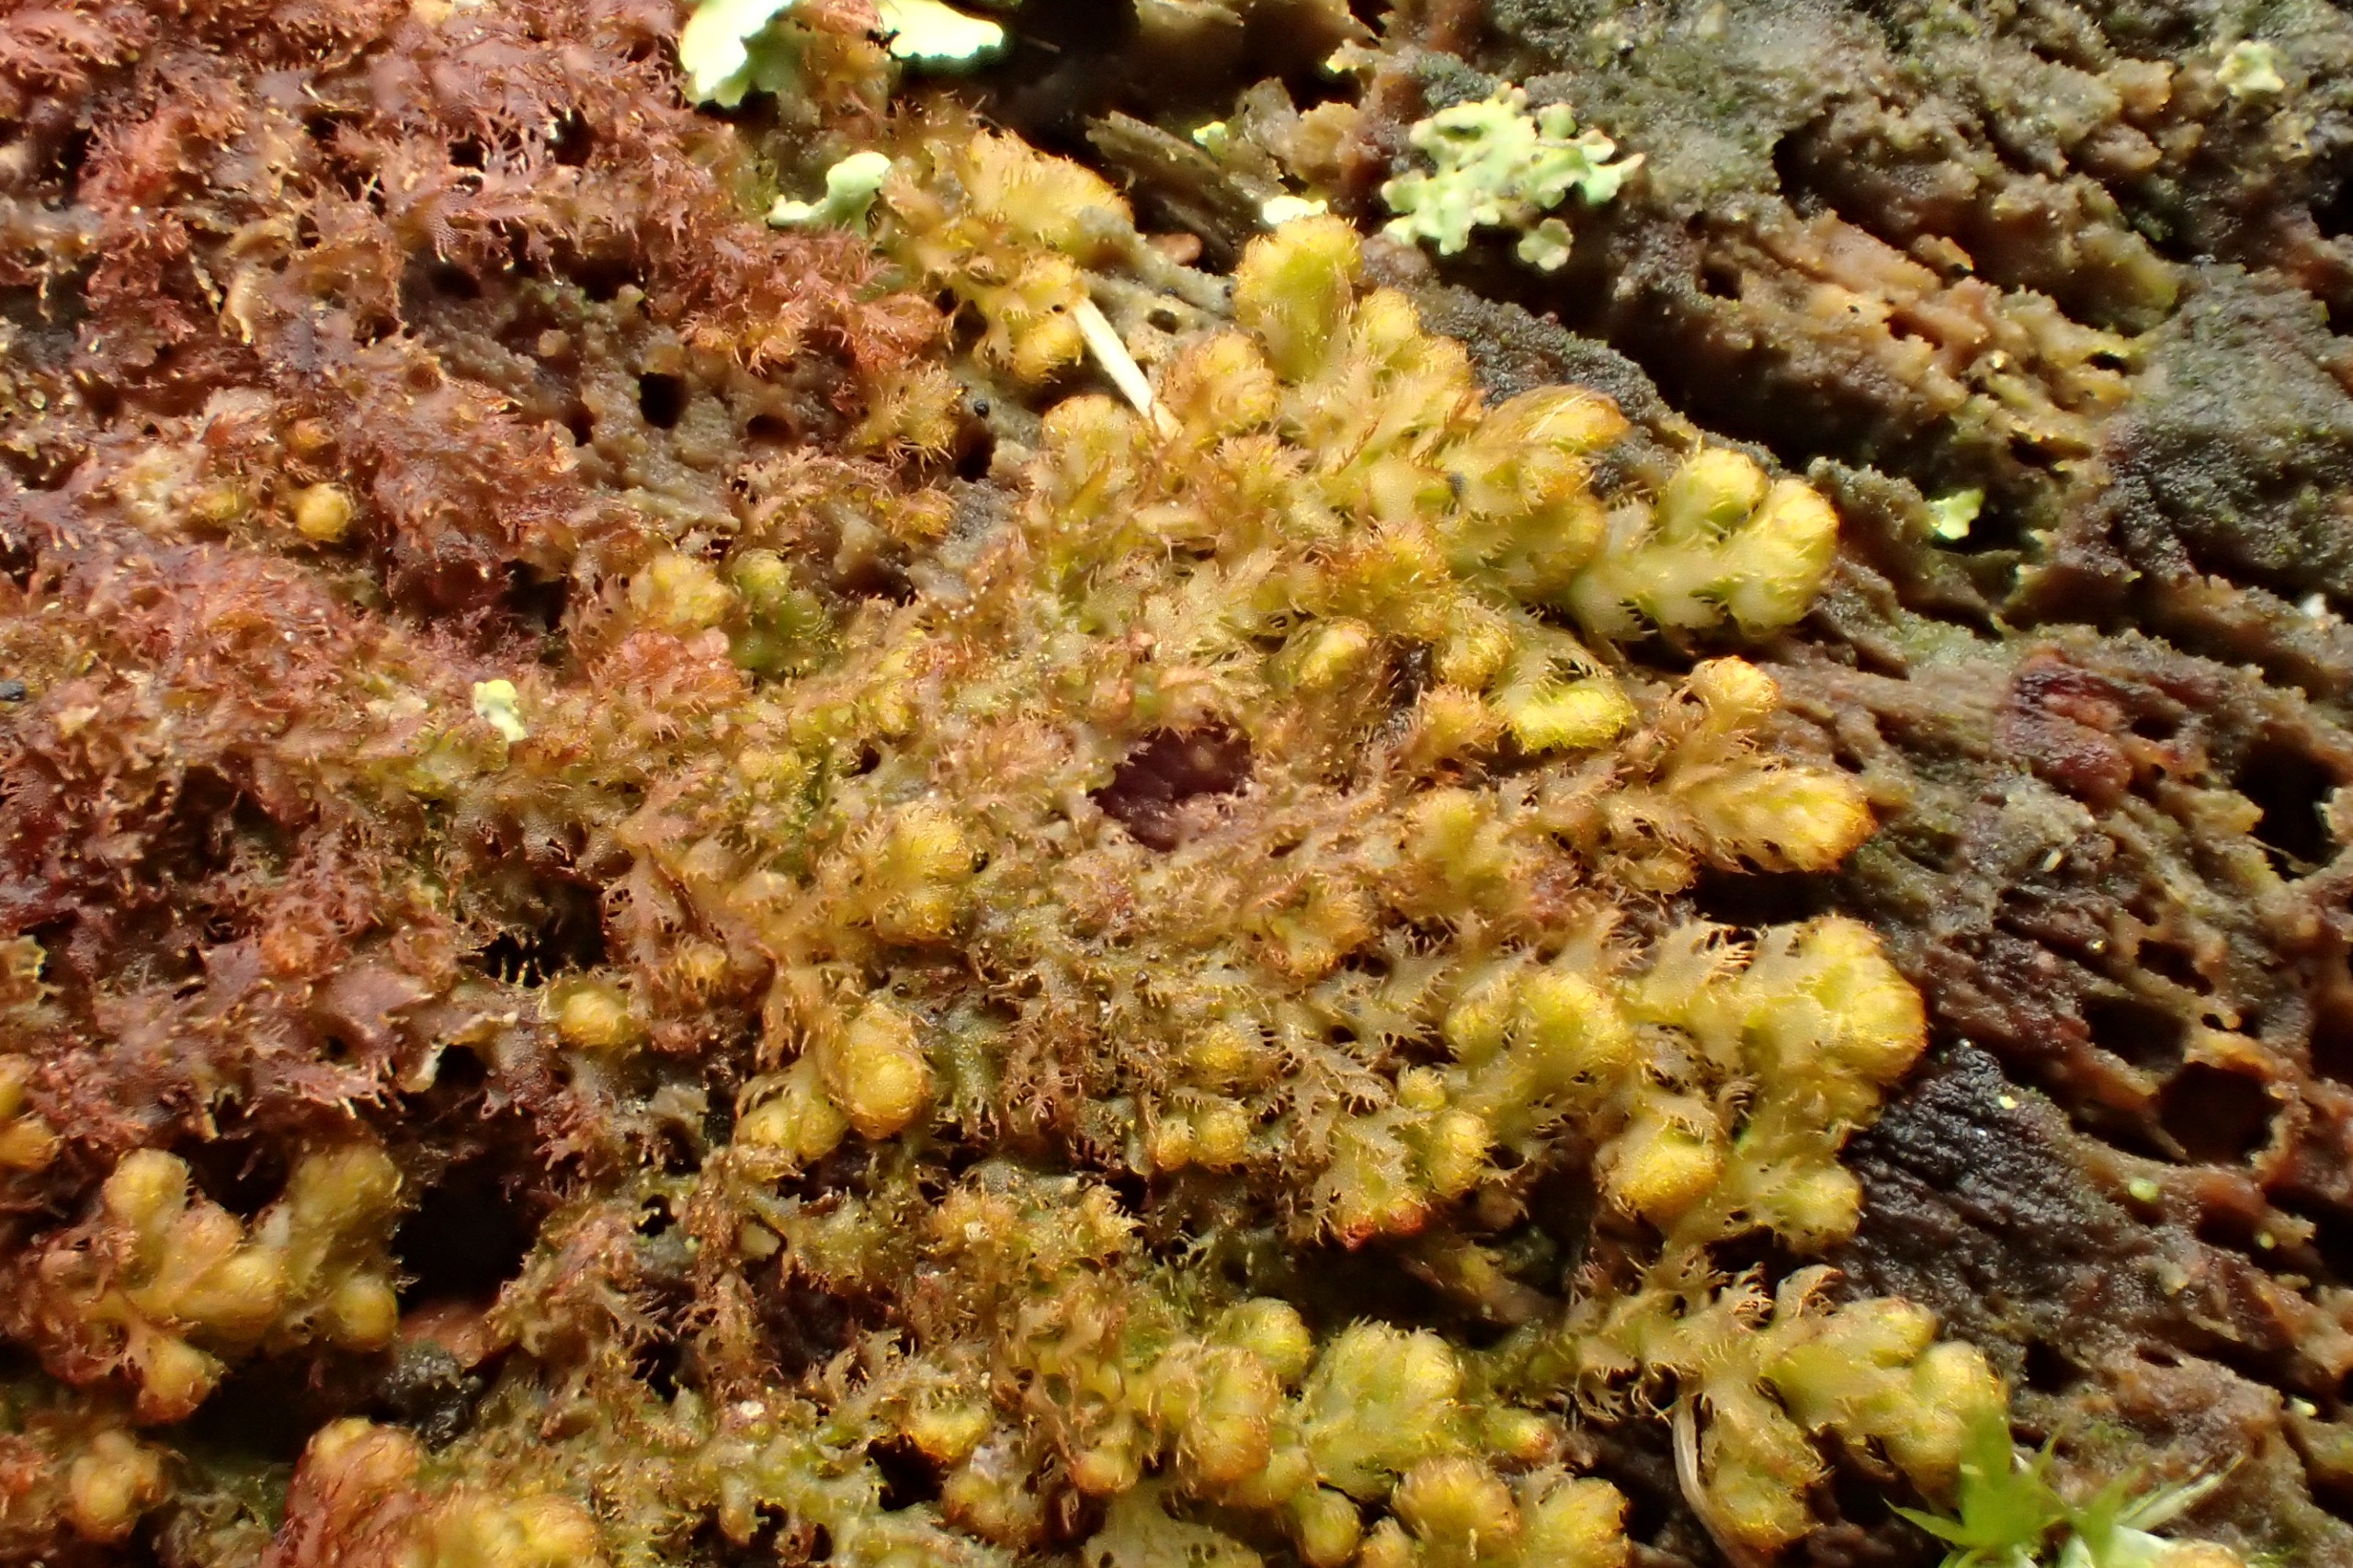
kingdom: Plantae
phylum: Marchantiophyta
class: Jungermanniopsida
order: Ptilidiales
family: Ptilidiaceae
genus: Ptilidium
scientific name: Ptilidium pulcherrimum
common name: Stub-frynsemos
